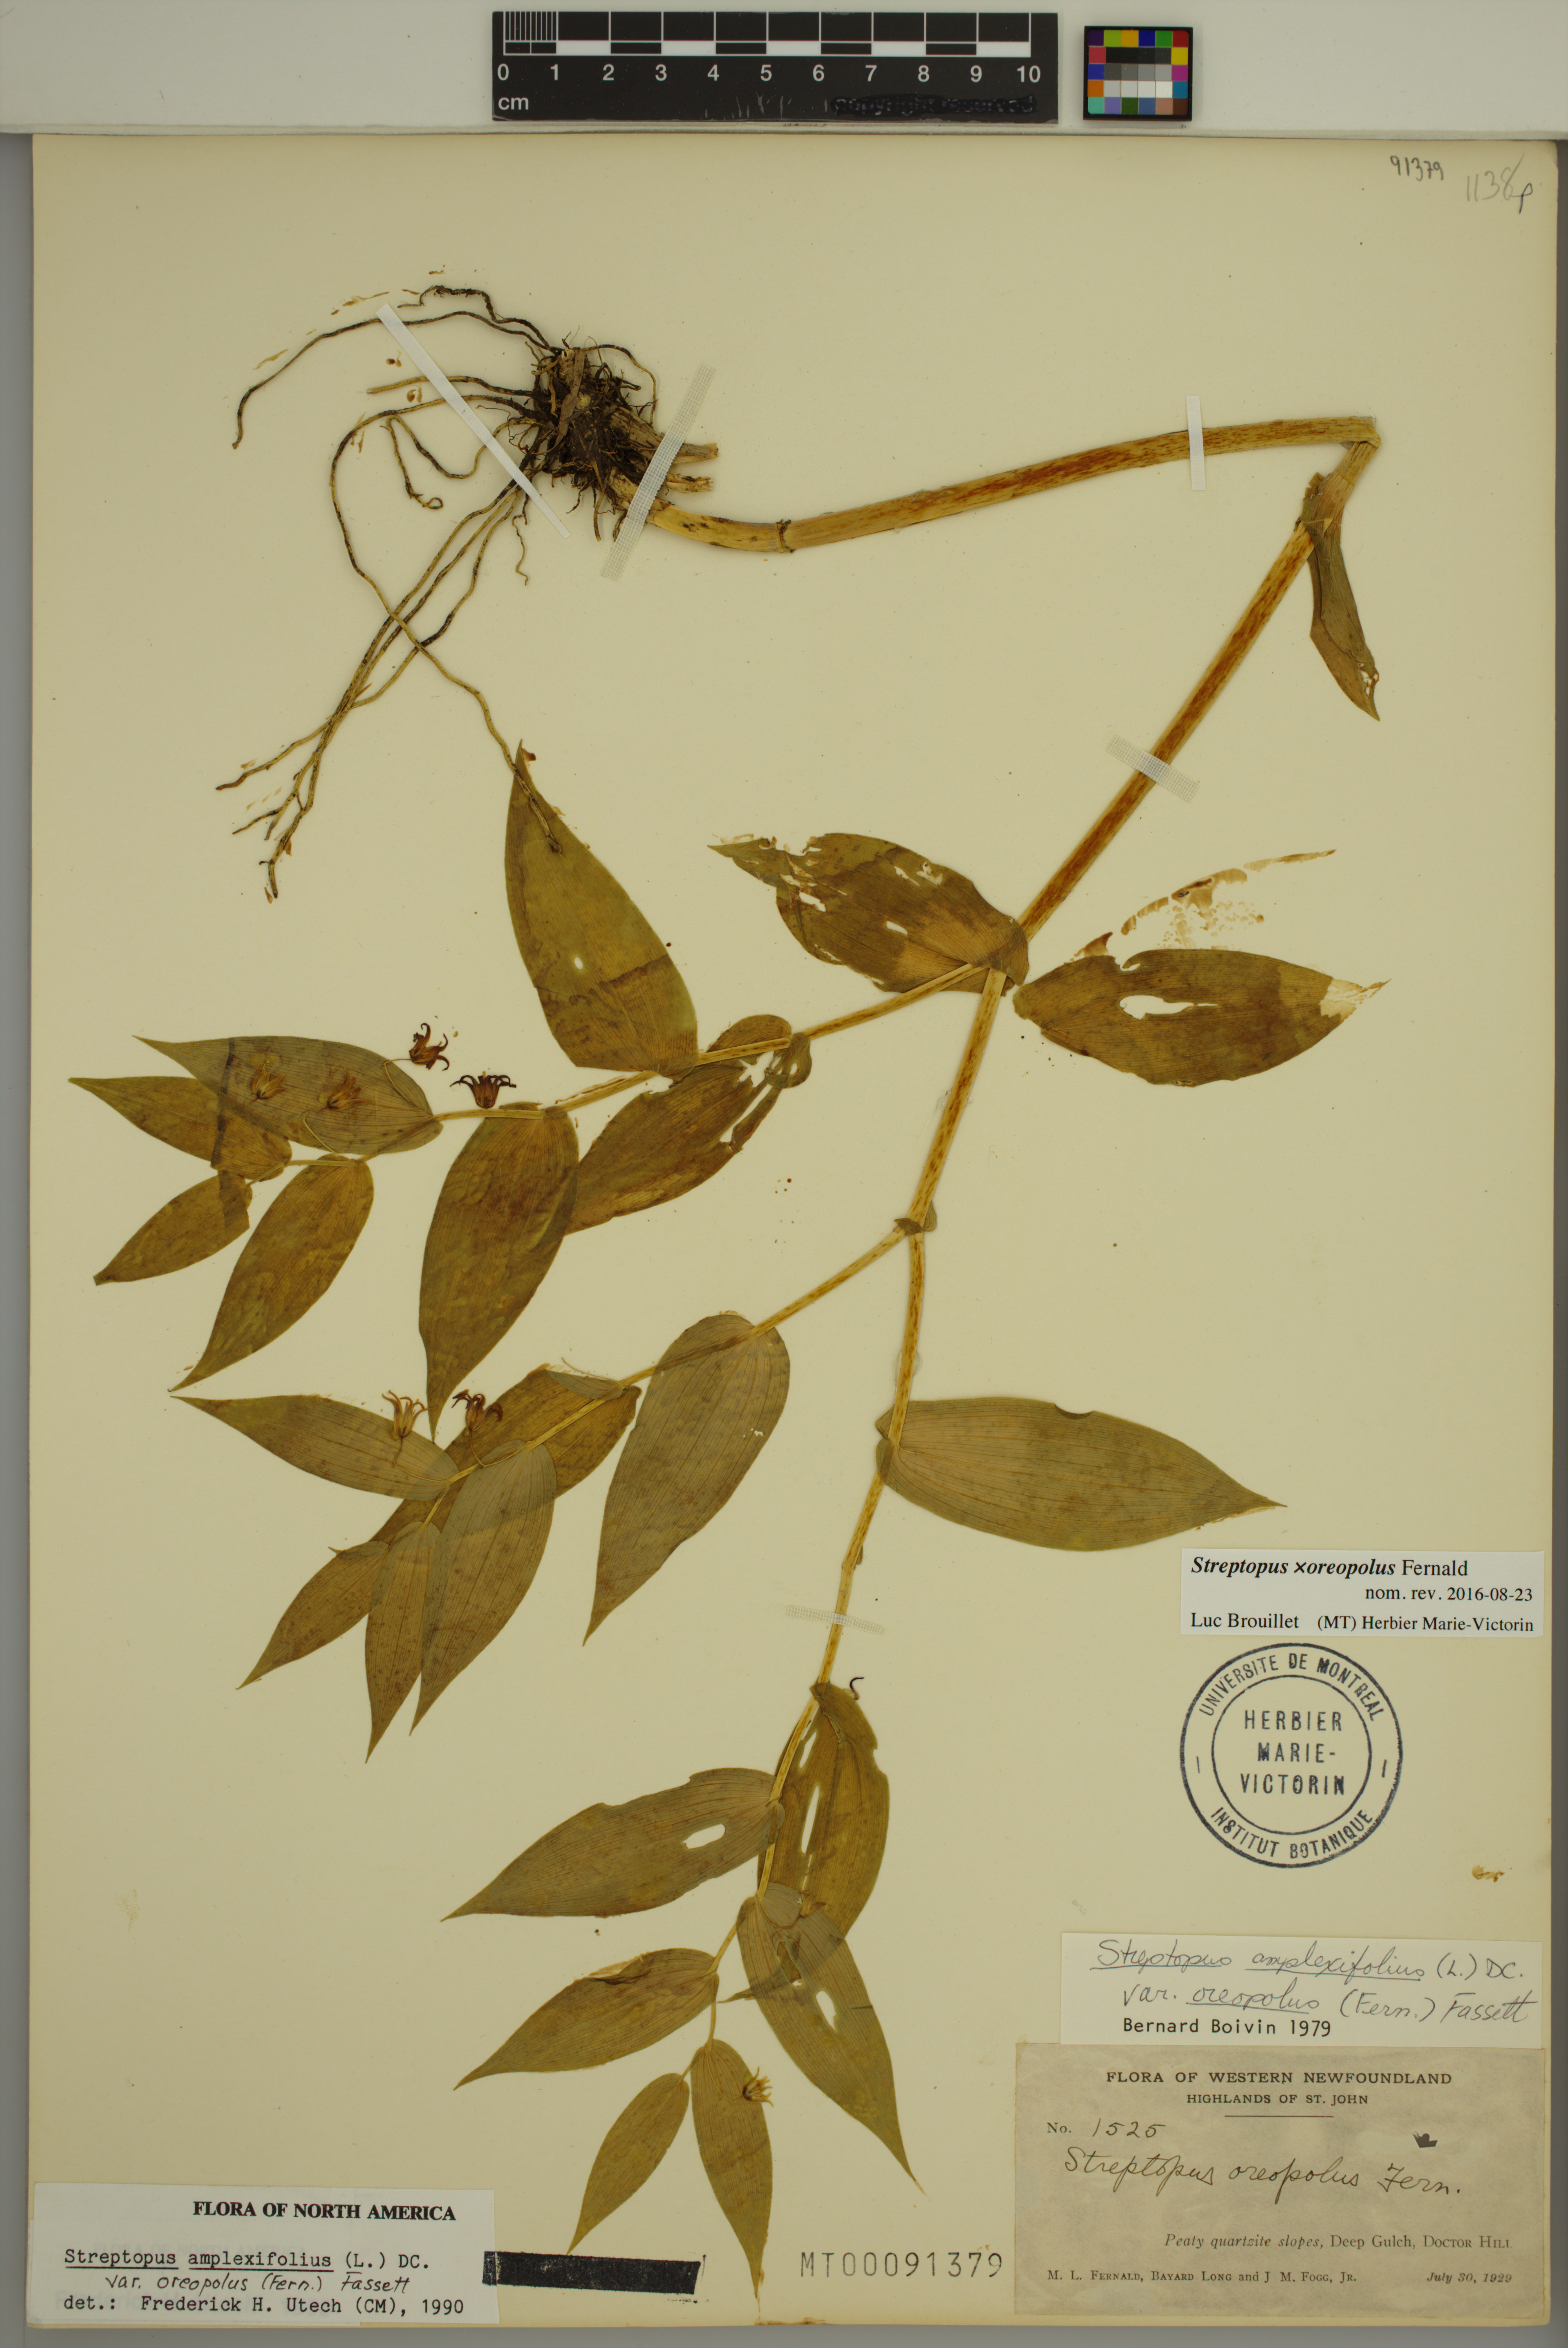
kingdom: Plantae
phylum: Tracheophyta
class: Liliopsida
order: Liliales
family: Liliaceae
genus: Streptopus
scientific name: Streptopus oreopolus
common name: Hybrid twisted-stalk
